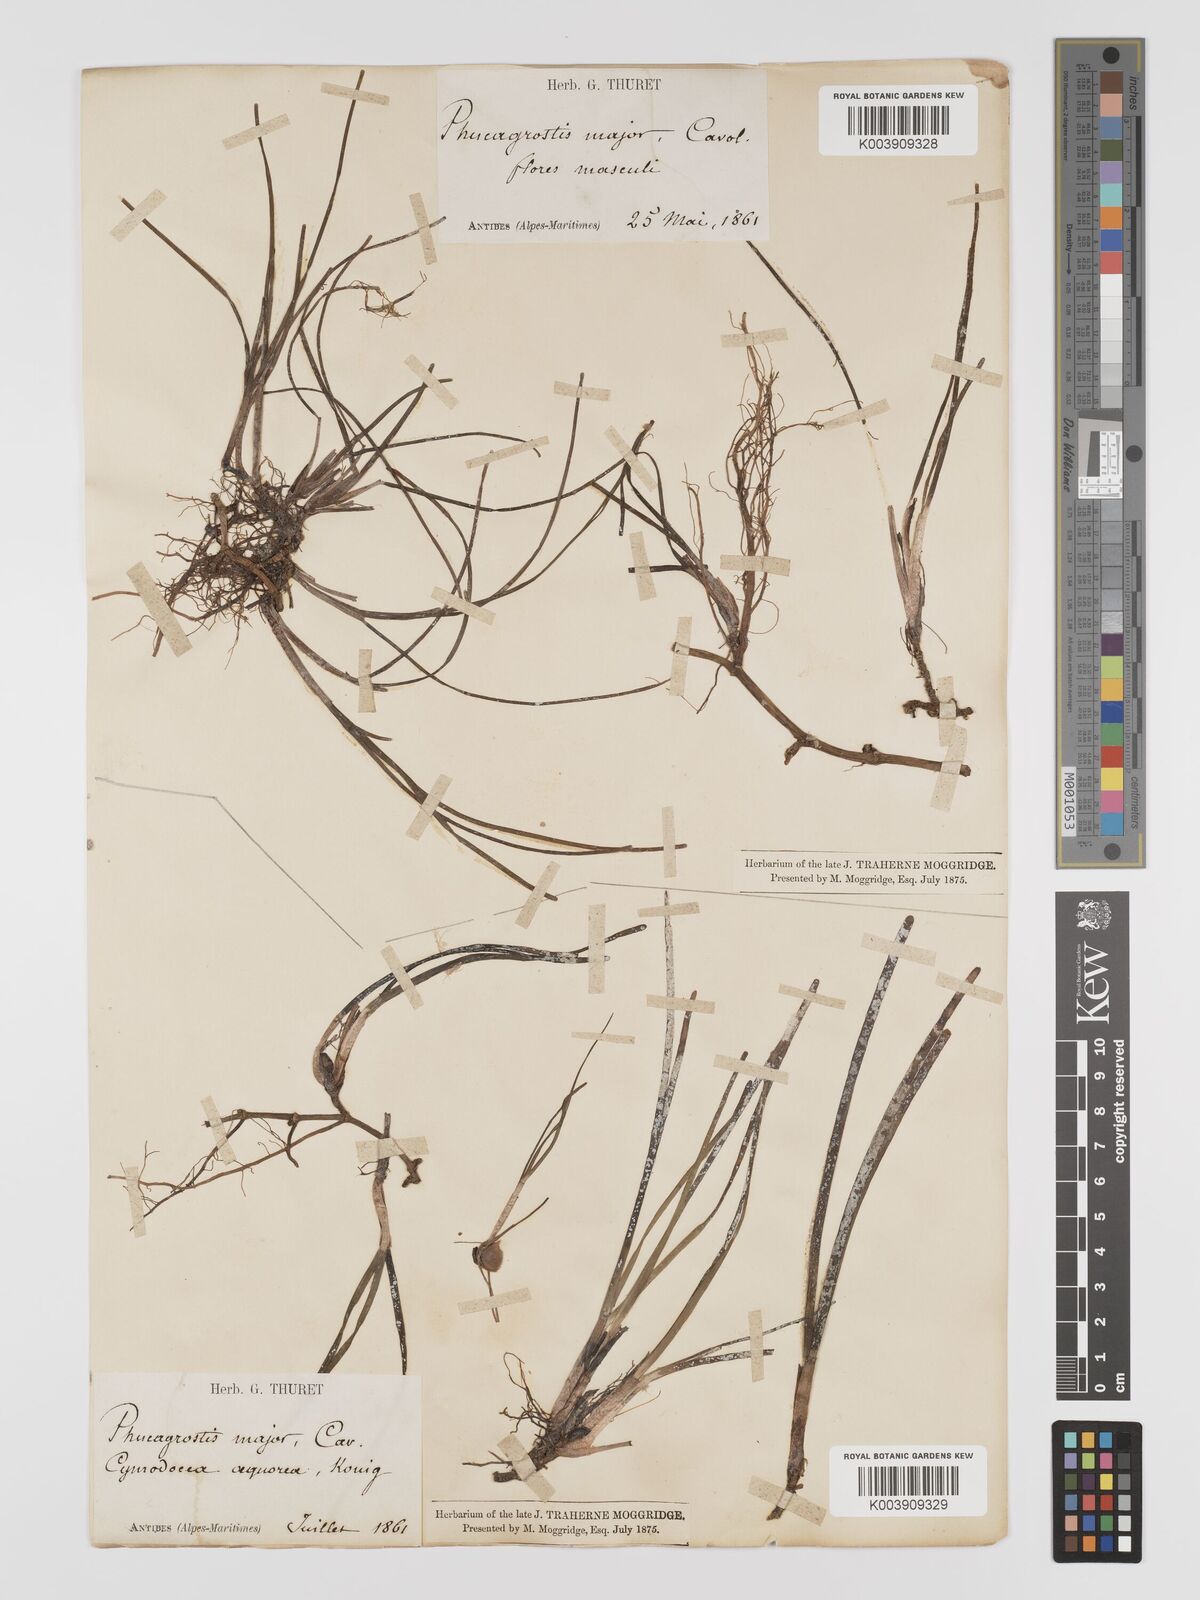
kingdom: Plantae
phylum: Tracheophyta
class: Liliopsida
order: Alismatales
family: Cymodoceaceae
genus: Cymodocea
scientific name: Cymodocea nodosa
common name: Slender seagrass
